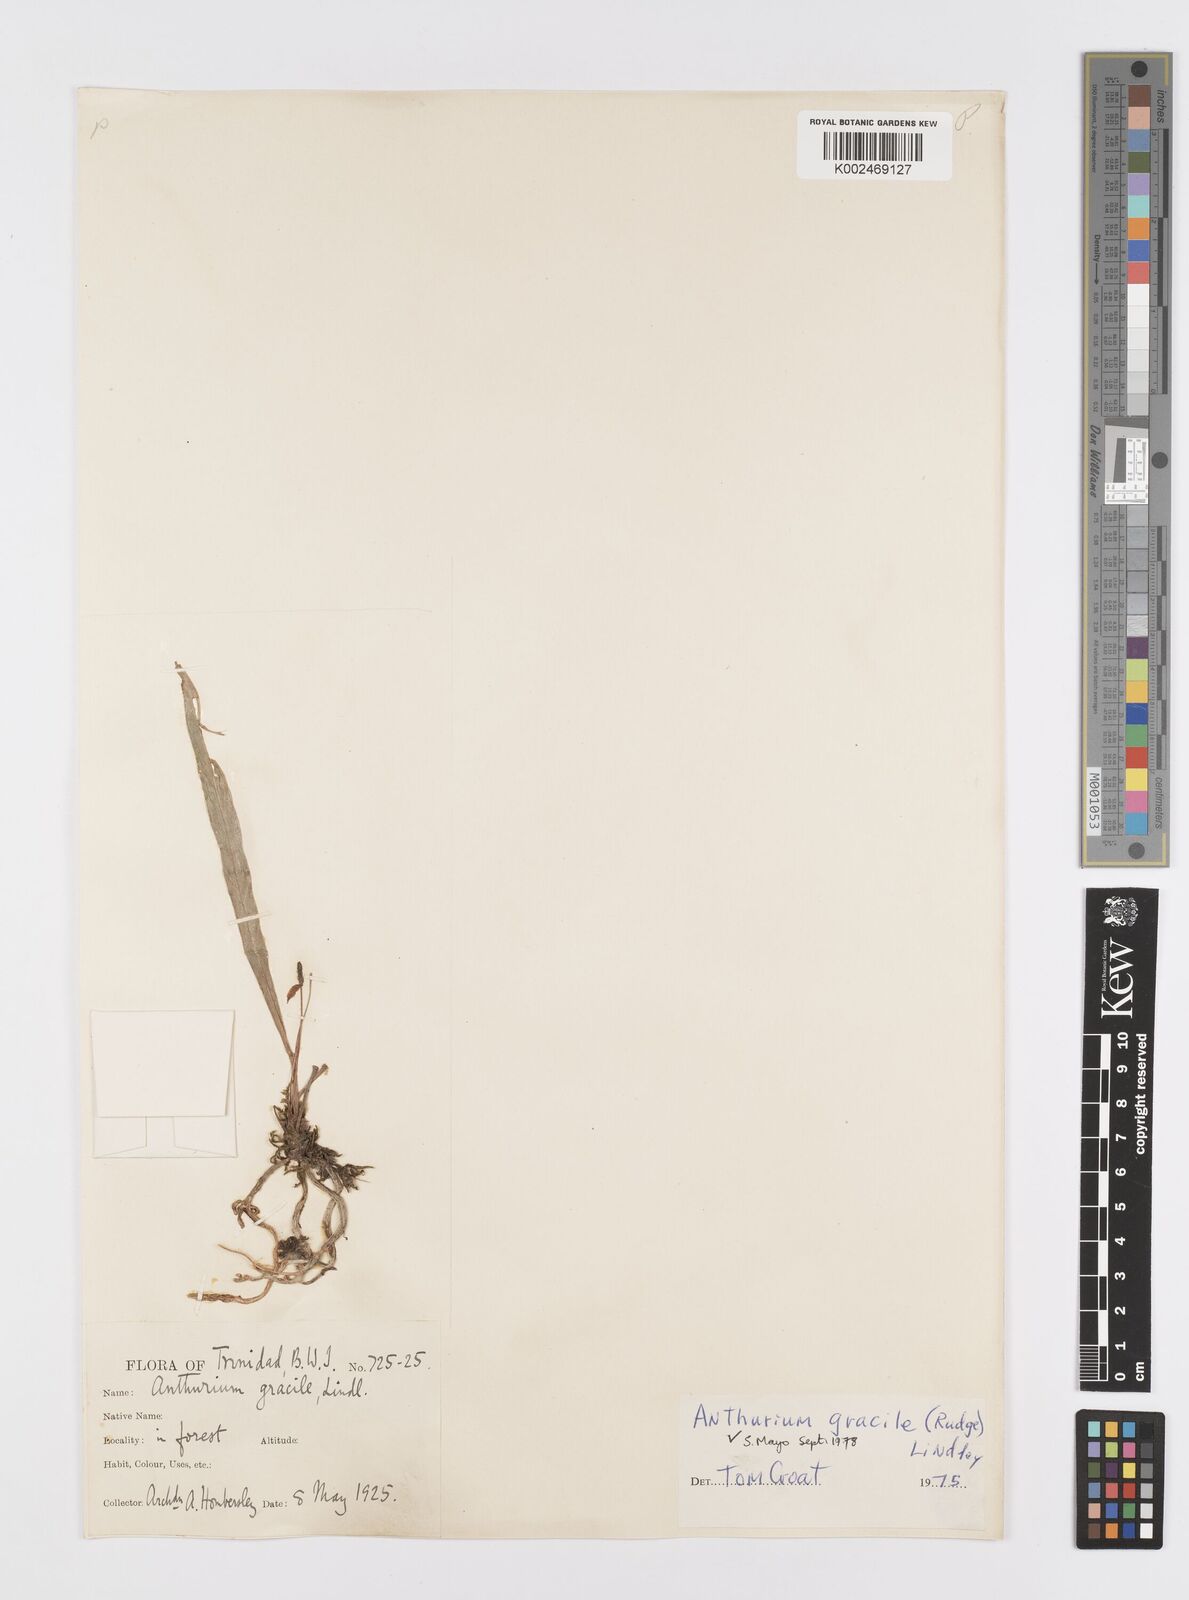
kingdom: Plantae
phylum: Tracheophyta
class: Liliopsida
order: Alismatales
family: Araceae
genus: Anthurium
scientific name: Anthurium gracile
